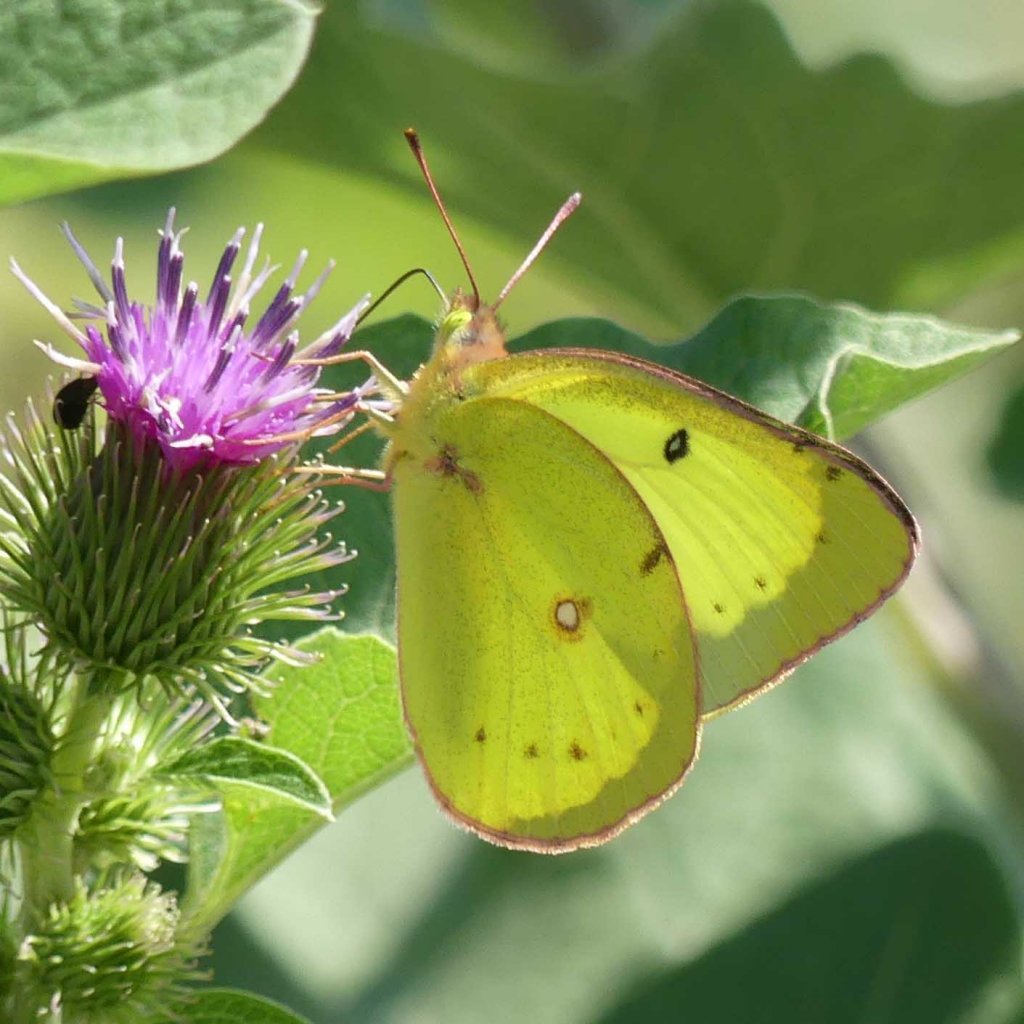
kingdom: Animalia
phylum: Arthropoda
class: Insecta
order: Lepidoptera
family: Pieridae
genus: Colias
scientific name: Colias philodice
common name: Clouded Sulphur
